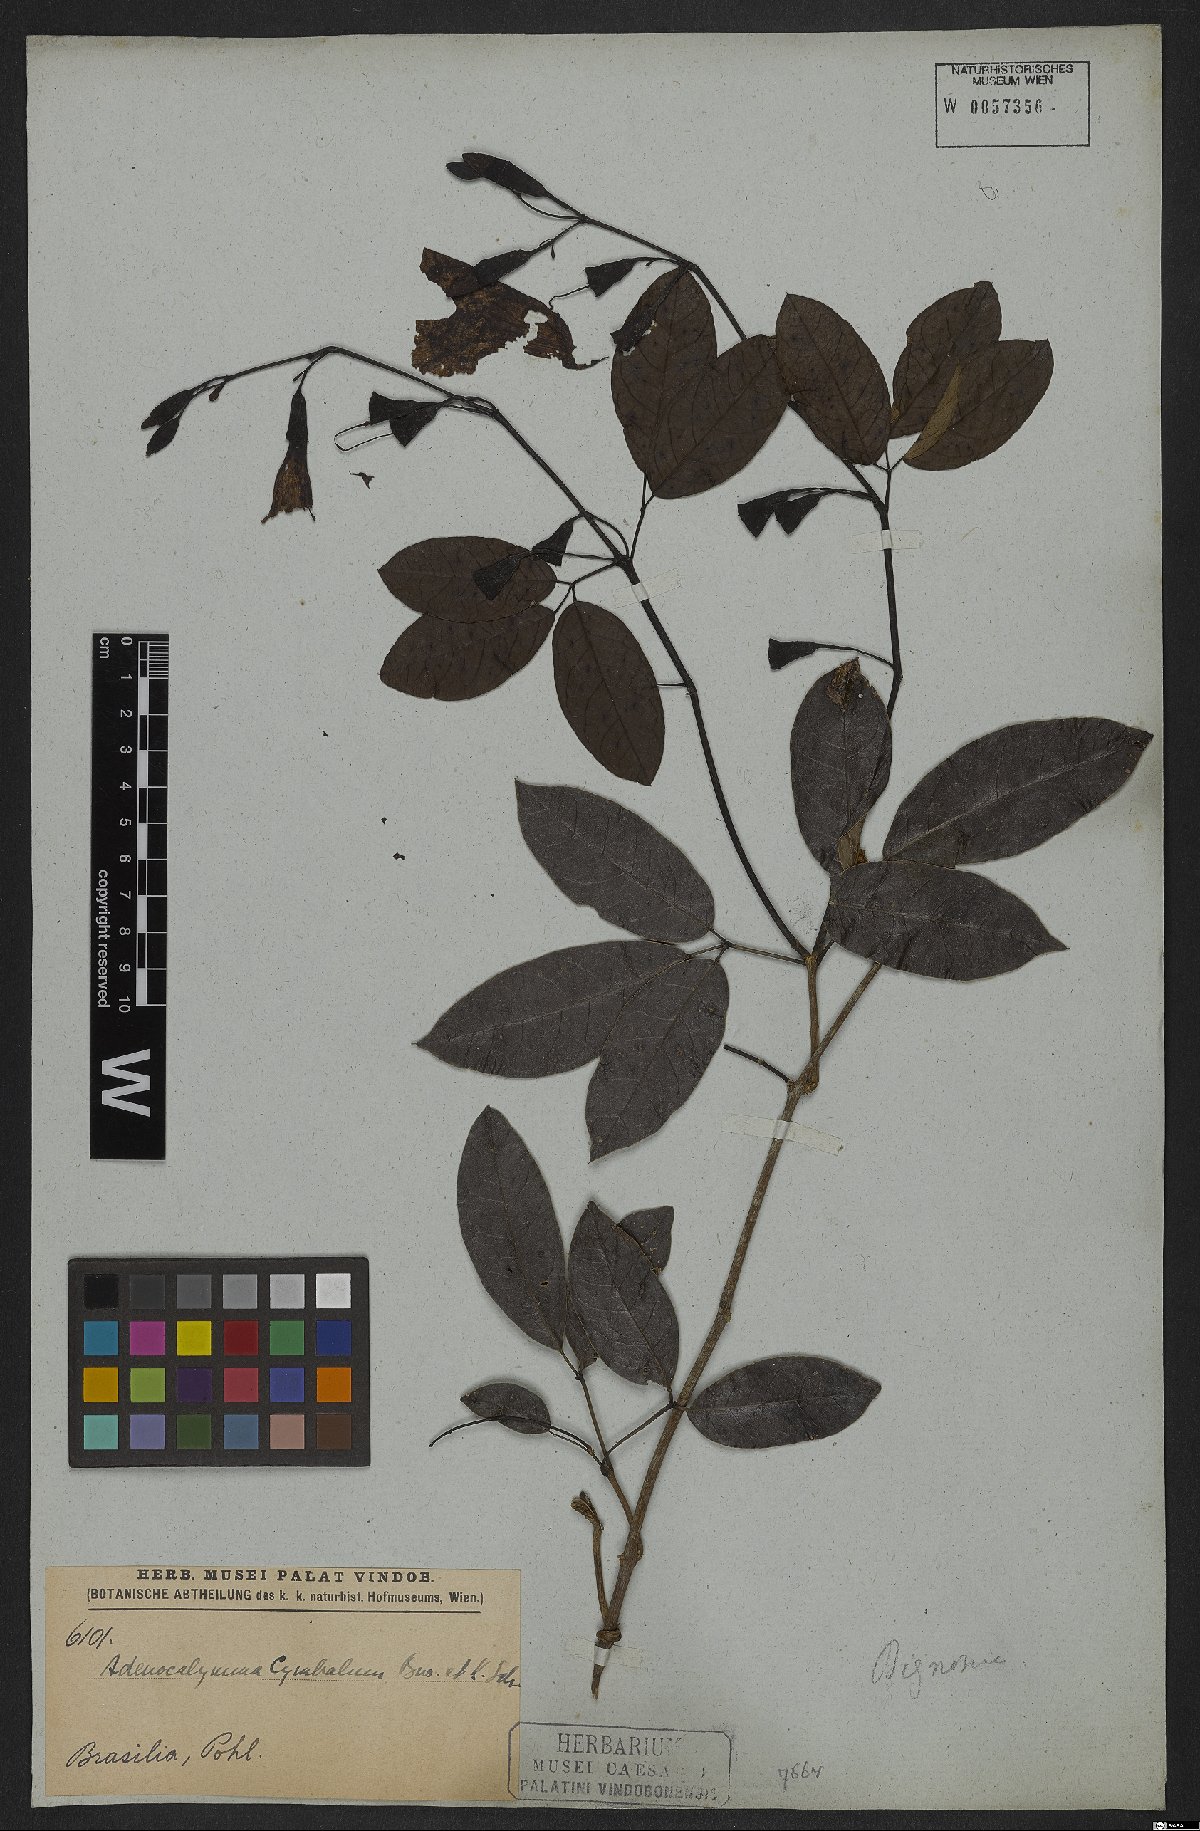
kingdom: Plantae
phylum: Tracheophyta
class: Magnoliopsida
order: Lamiales
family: Bignoniaceae
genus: Adenocalymma
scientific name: Adenocalymma cymbalum
